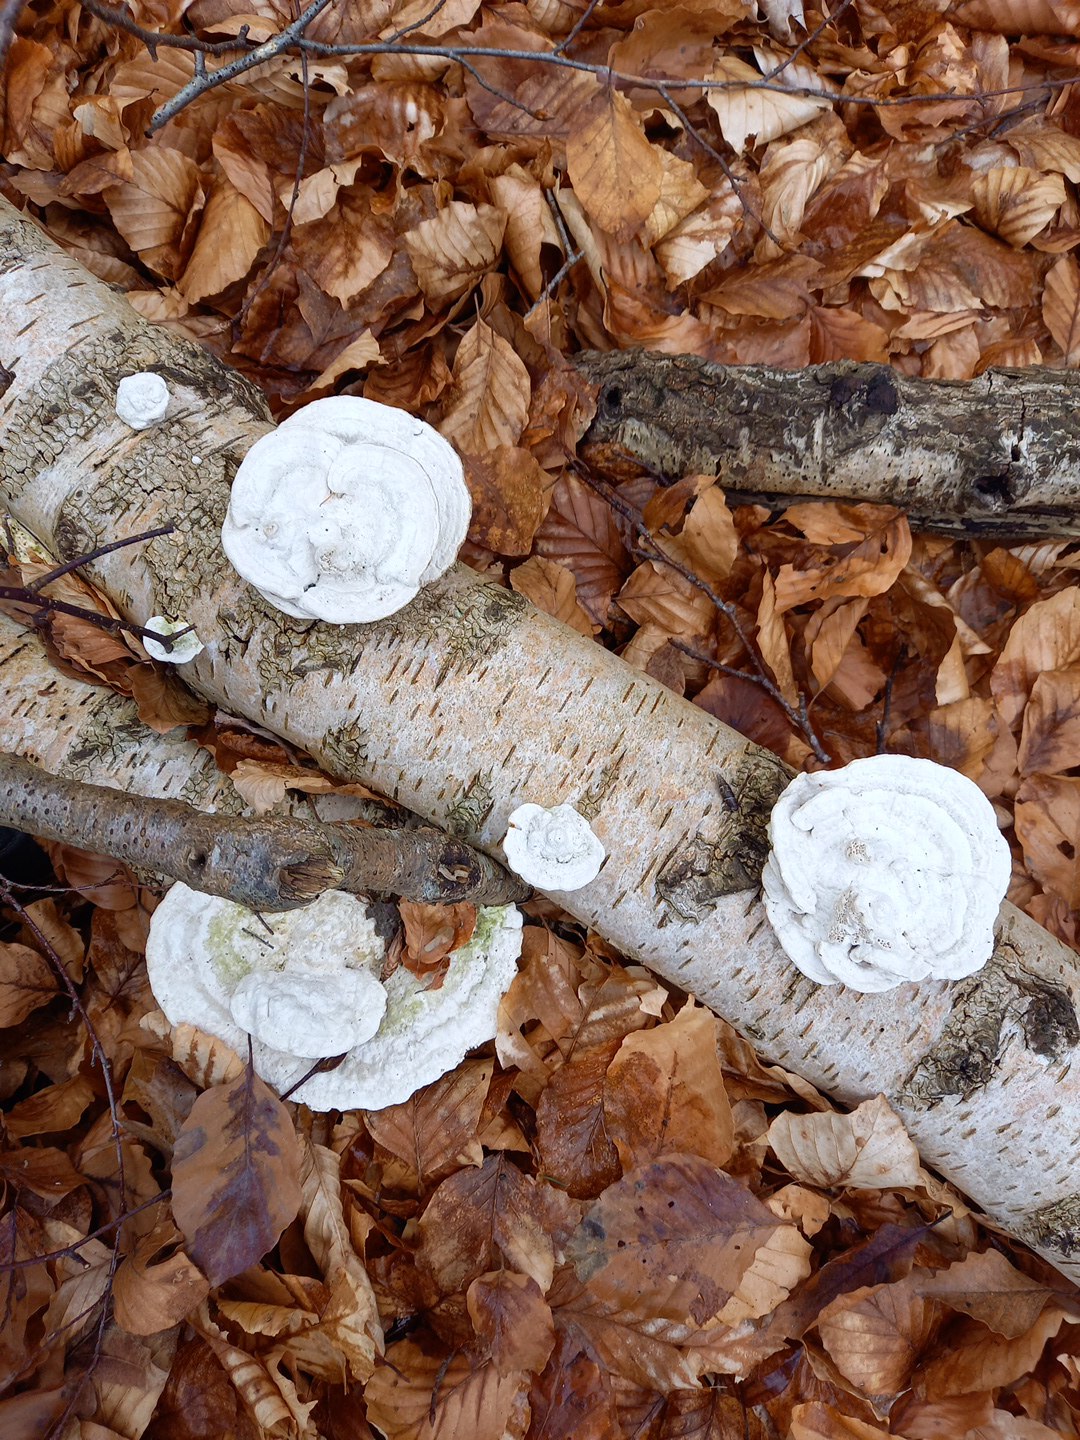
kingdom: Fungi
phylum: Basidiomycota
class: Agaricomycetes
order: Polyporales
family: Polyporaceae
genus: Trametes
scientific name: Trametes gibbosa
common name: puklet læderporesvamp
